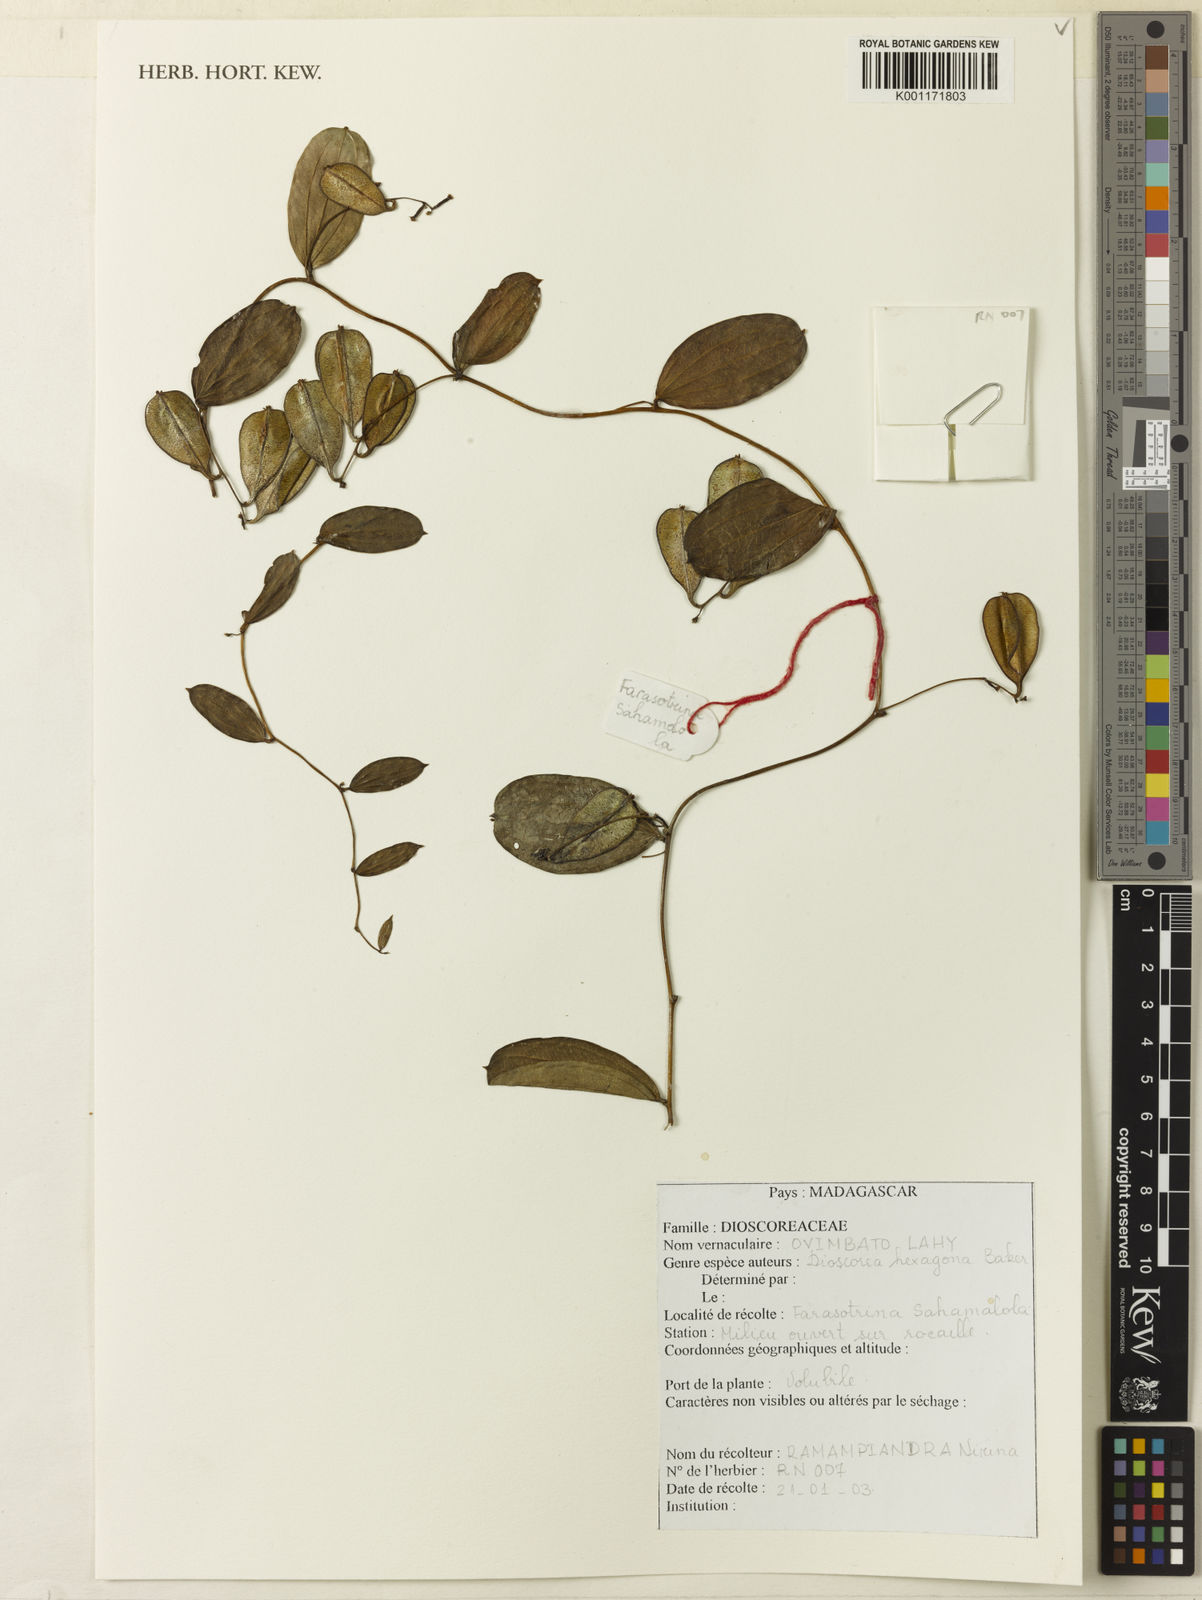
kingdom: Plantae
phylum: Tracheophyta
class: Liliopsida
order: Dioscoreales
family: Dioscoreaceae
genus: Dioscorea
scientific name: Dioscorea hexagona
